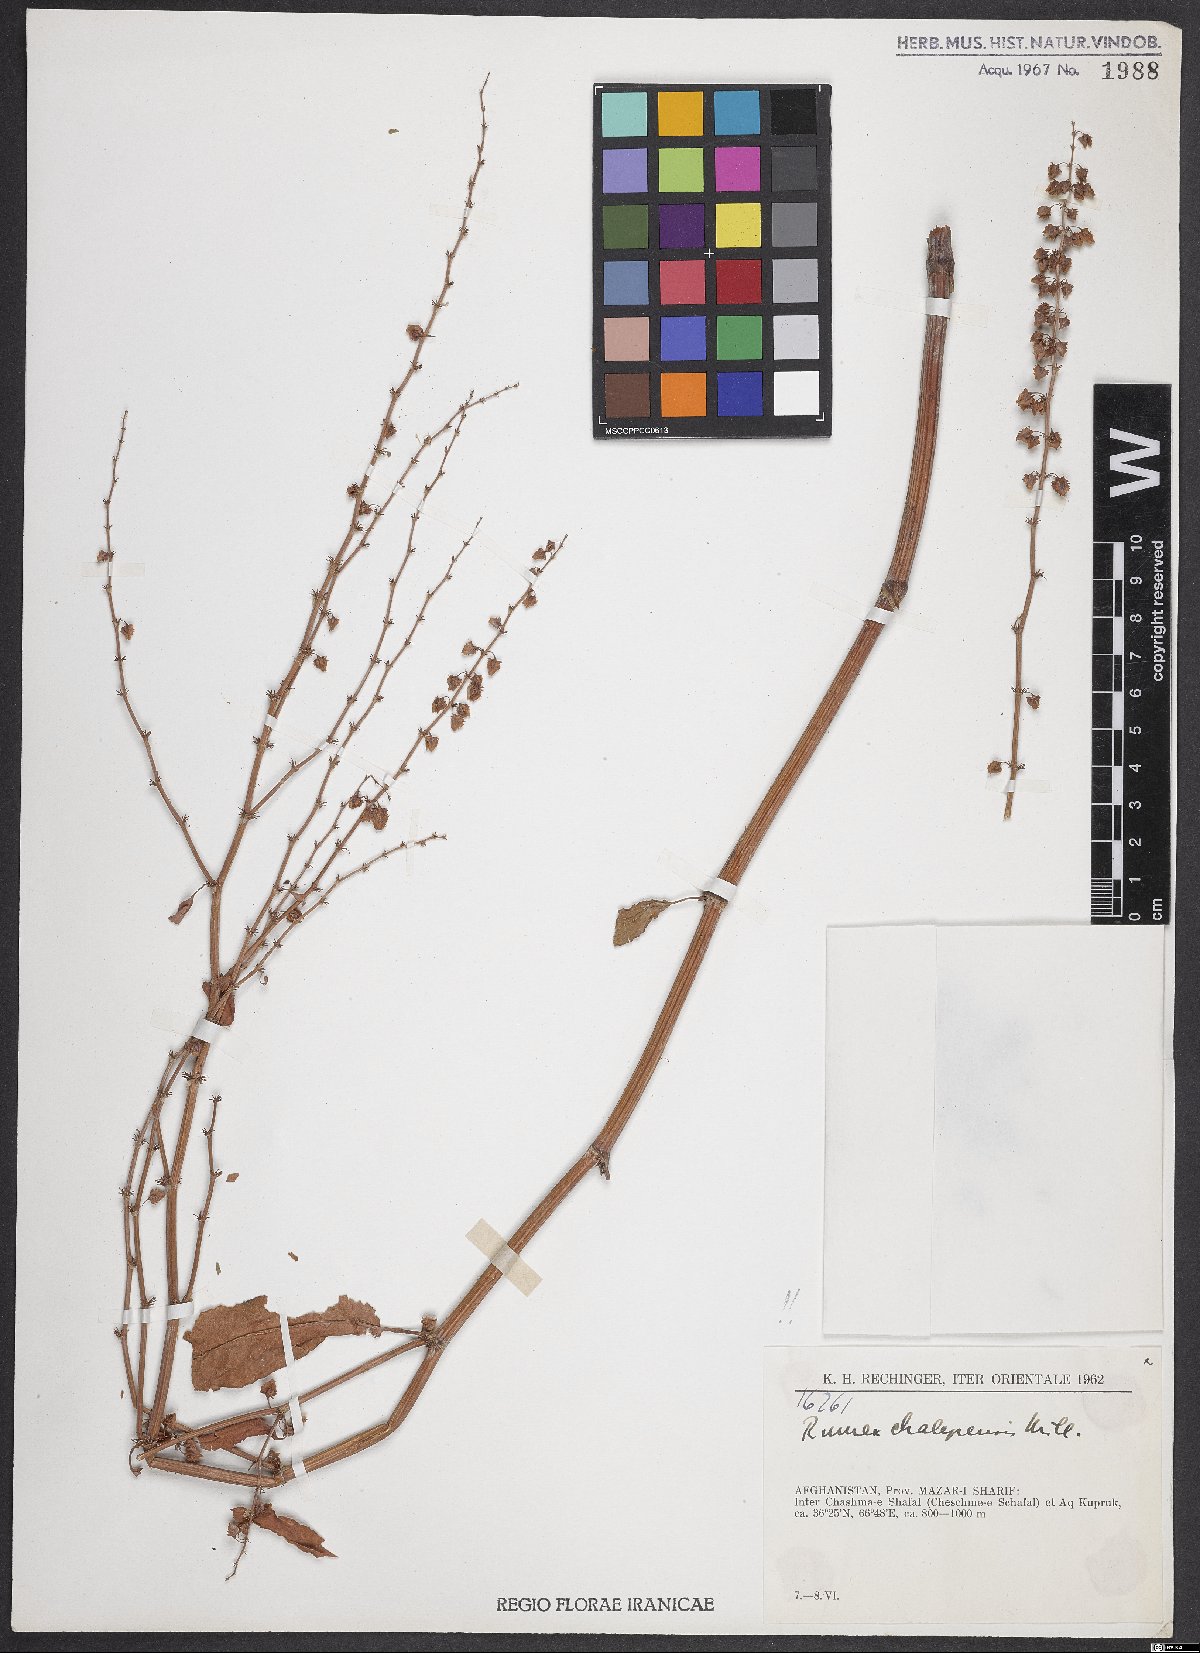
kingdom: Plantae
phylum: Tracheophyta
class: Magnoliopsida
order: Caryophyllales
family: Polygonaceae
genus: Rumex
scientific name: Rumex chalepensis
